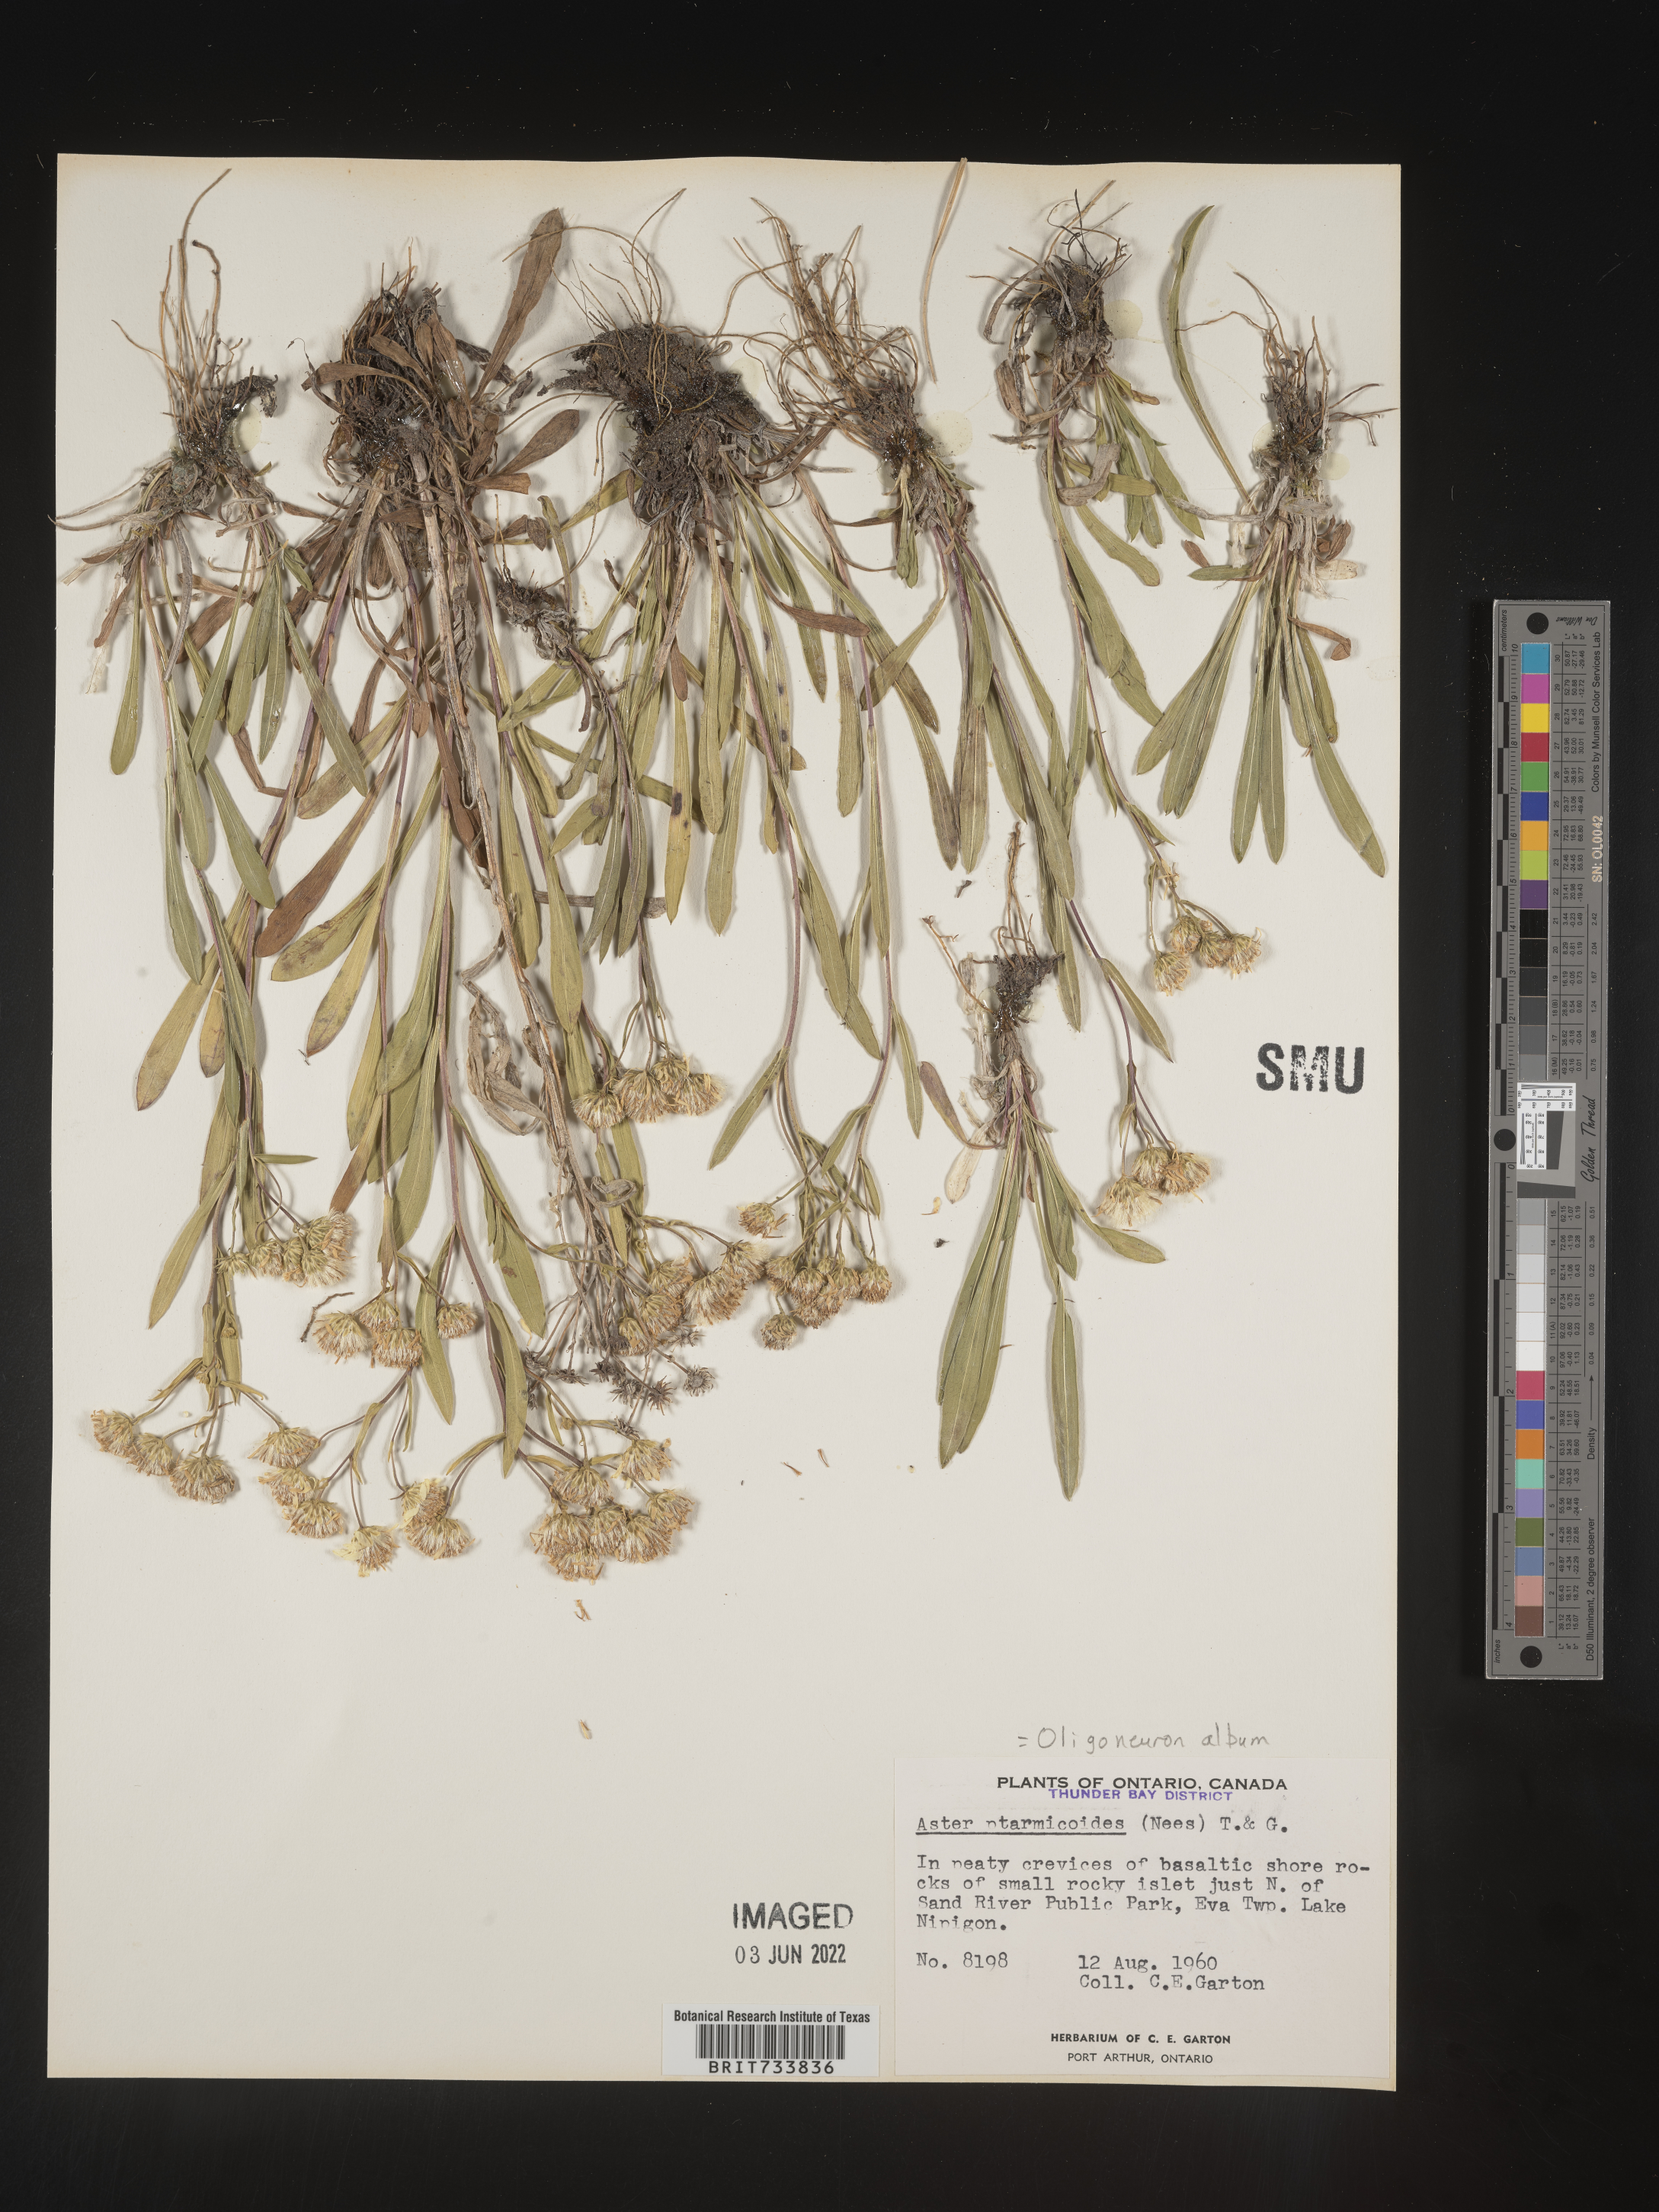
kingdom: Plantae
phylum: Tracheophyta
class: Magnoliopsida
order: Asterales
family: Asteraceae
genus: Solidago
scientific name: Solidago ptarmicoides
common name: White flat-top goldenrod
